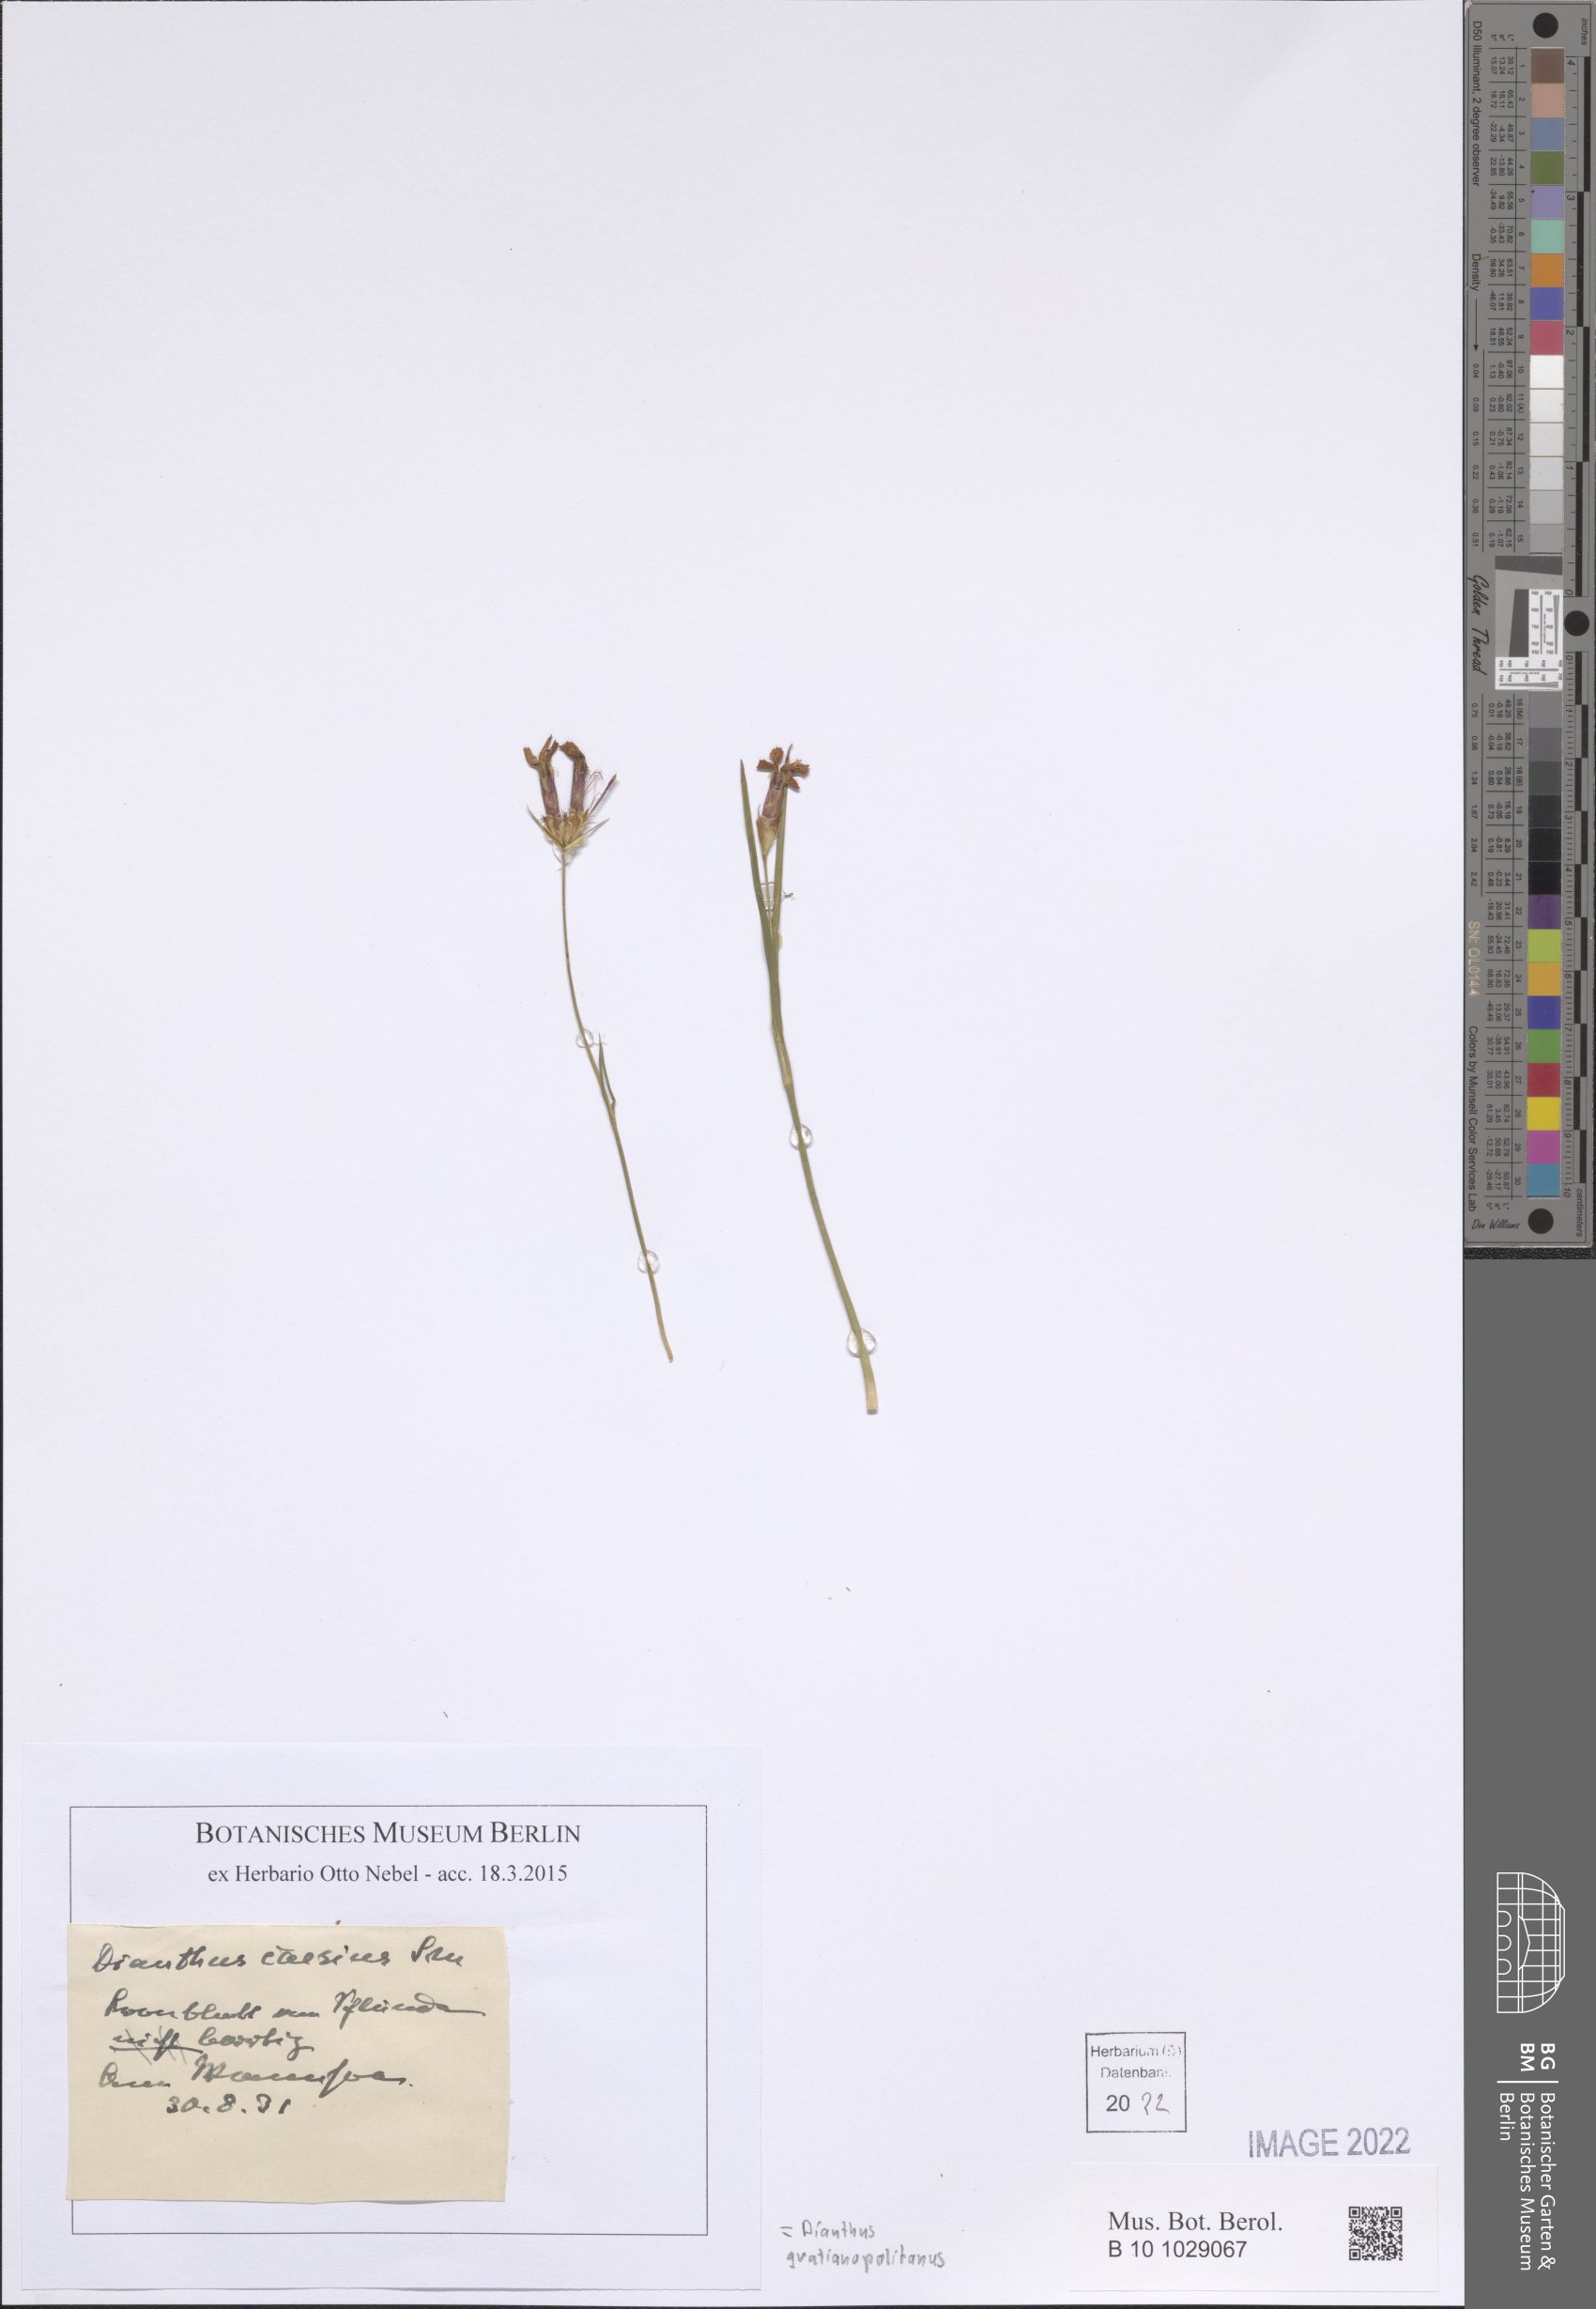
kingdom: Plantae
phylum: Tracheophyta
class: Magnoliopsida
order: Caryophyllales
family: Caryophyllaceae
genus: Dianthus
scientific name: Dianthus gratianopolitanus
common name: Cheddar pink
